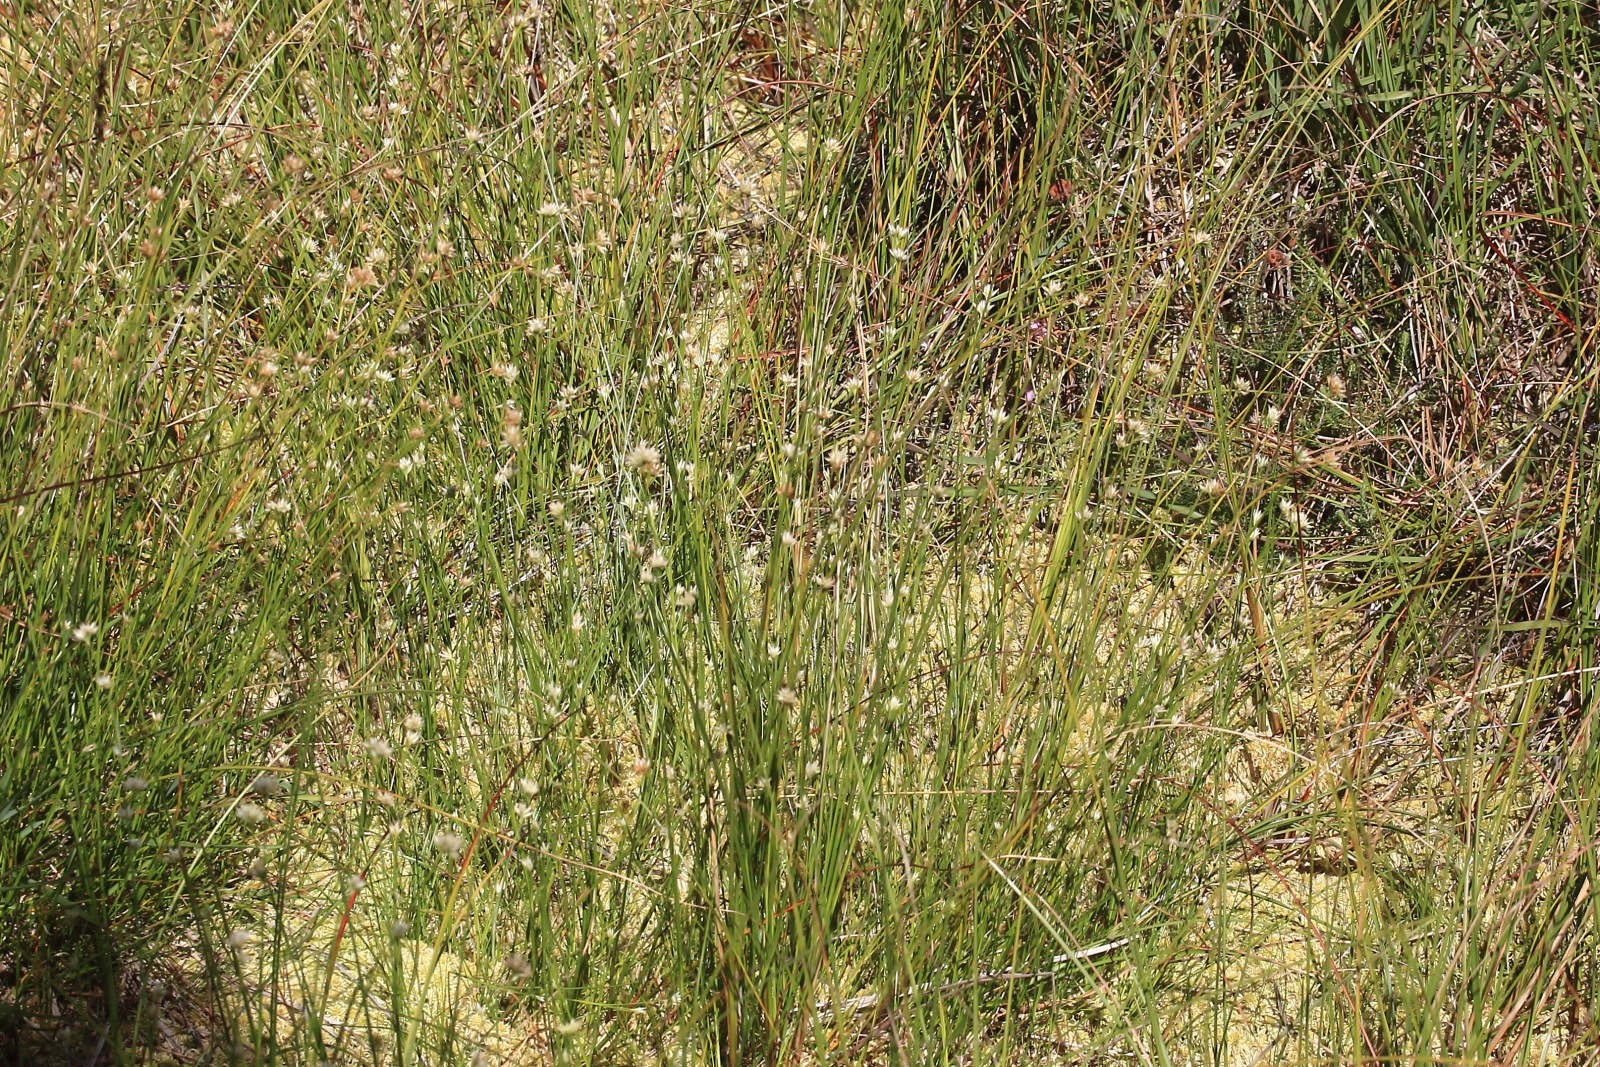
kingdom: Plantae
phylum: Tracheophyta
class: Liliopsida
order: Poales
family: Cyperaceae
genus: Rhynchospora
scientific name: Rhynchospora alba
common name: Hvid næbfrø
